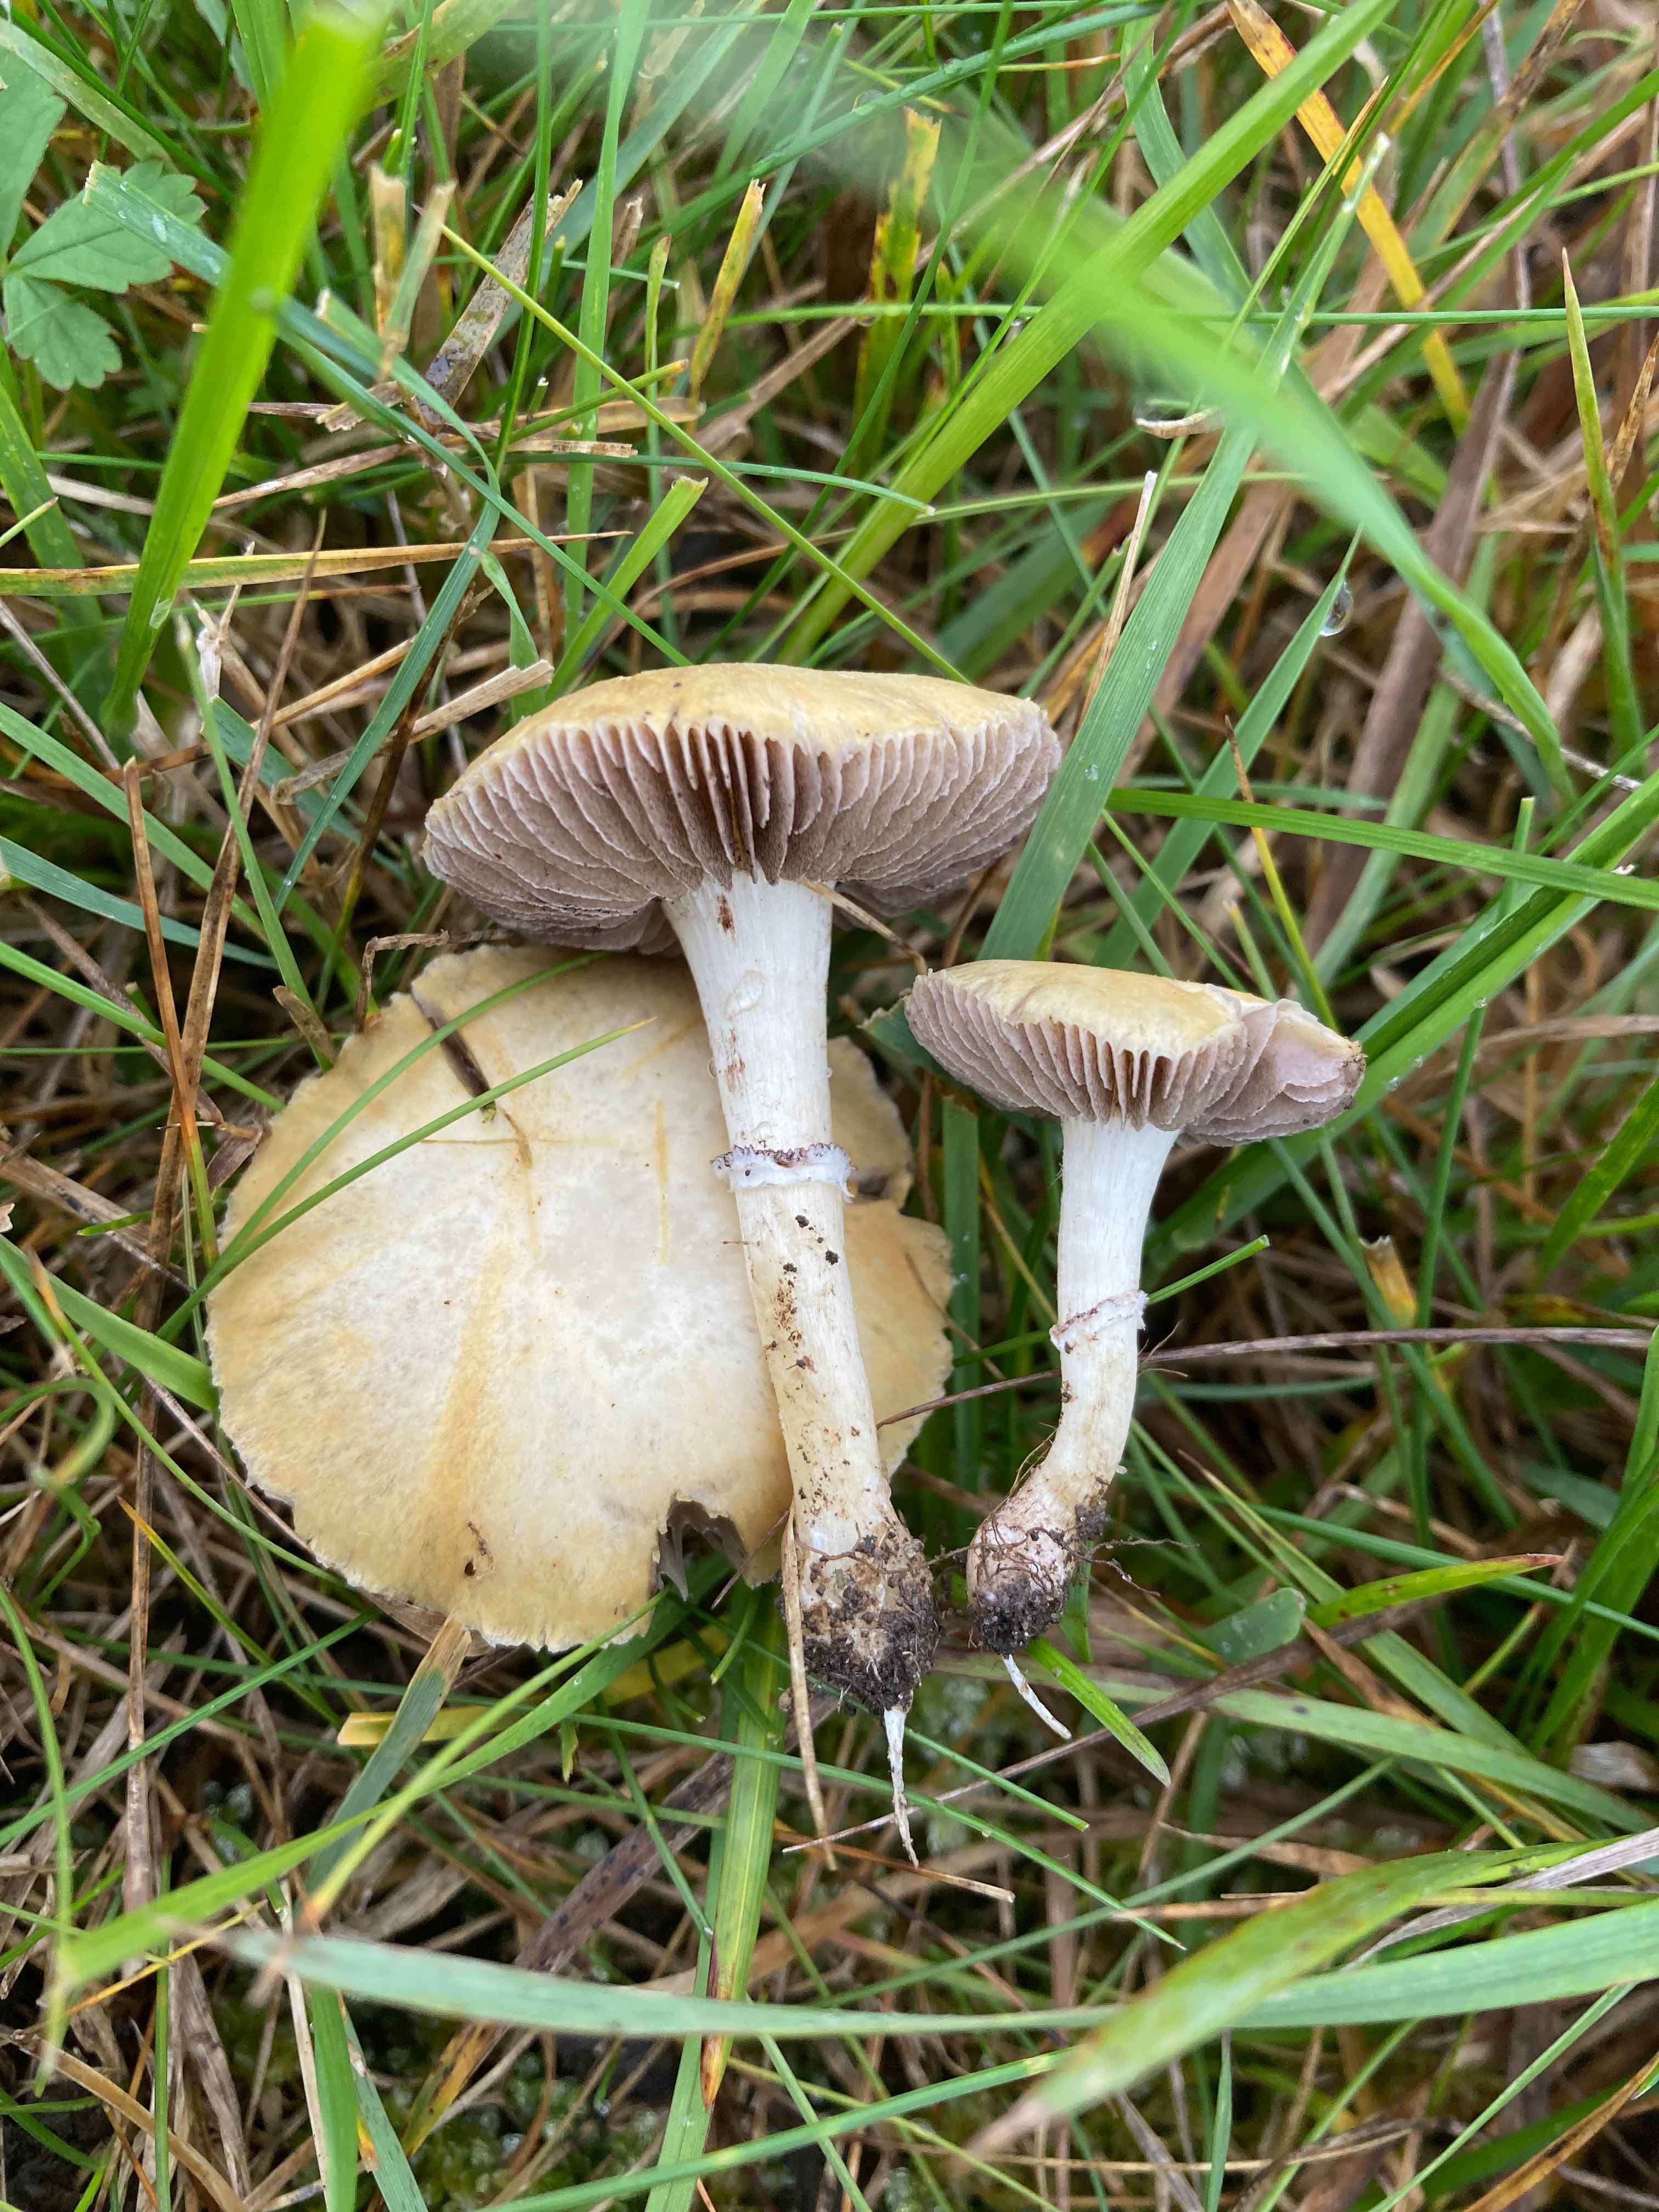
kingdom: Fungi
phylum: Basidiomycota
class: Agaricomycetes
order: Agaricales
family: Hymenogastraceae
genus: Psilocybe
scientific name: Psilocybe coronilla
